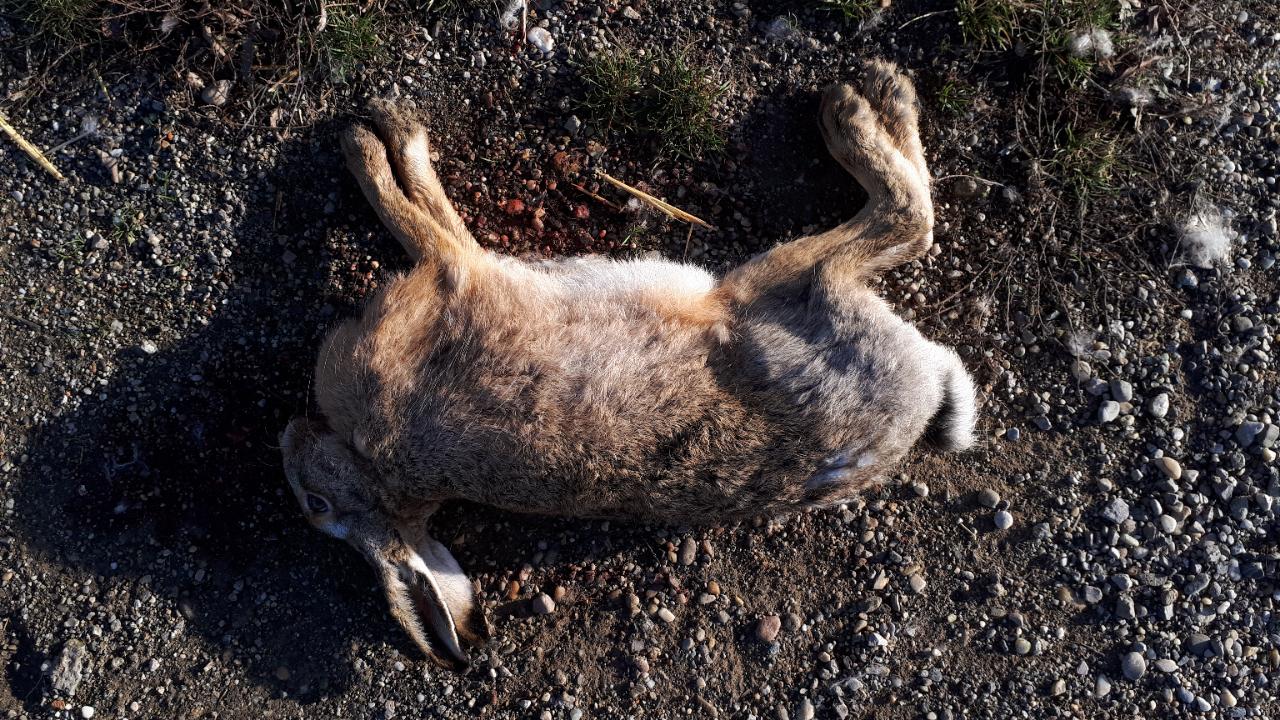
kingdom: Animalia
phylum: Chordata
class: Mammalia
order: Lagomorpha
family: Leporidae
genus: Lepus
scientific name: Lepus europaeus
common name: European hare
